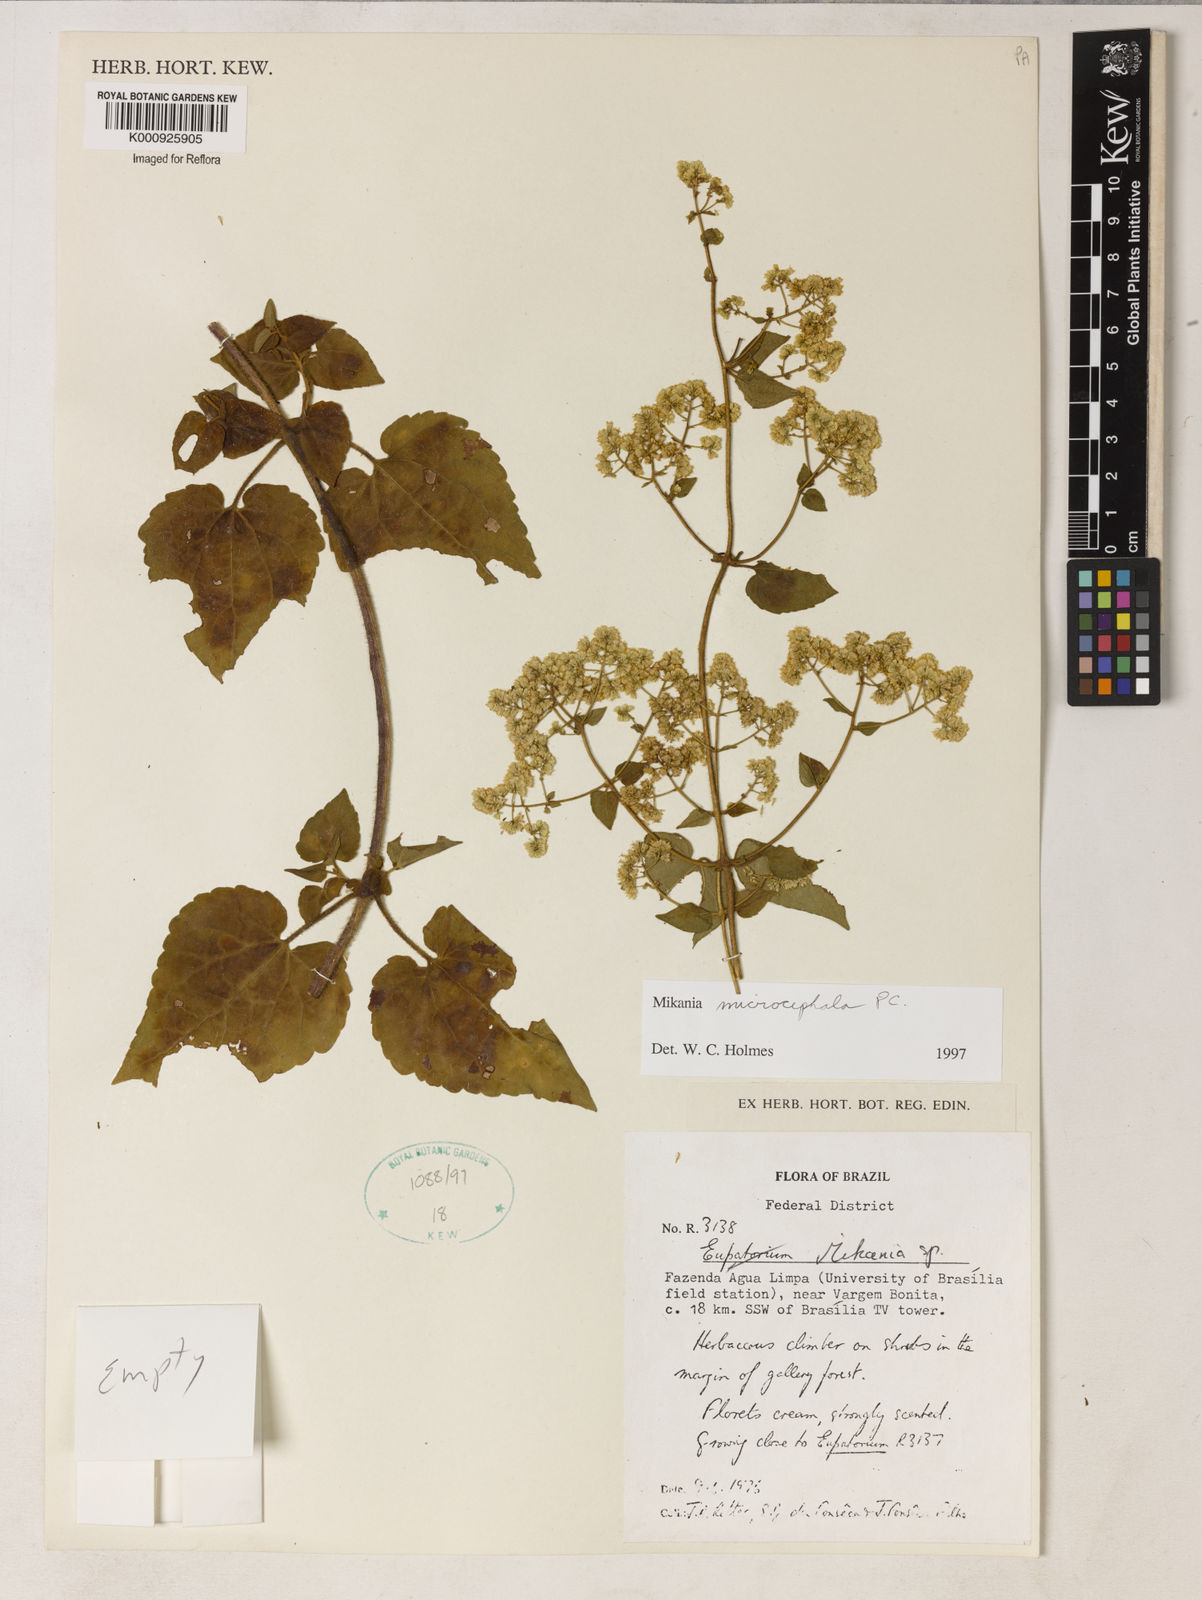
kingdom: Plantae
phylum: Tracheophyta
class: Magnoliopsida
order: Asterales
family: Asteraceae
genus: Mikania
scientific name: Mikania microcephala
